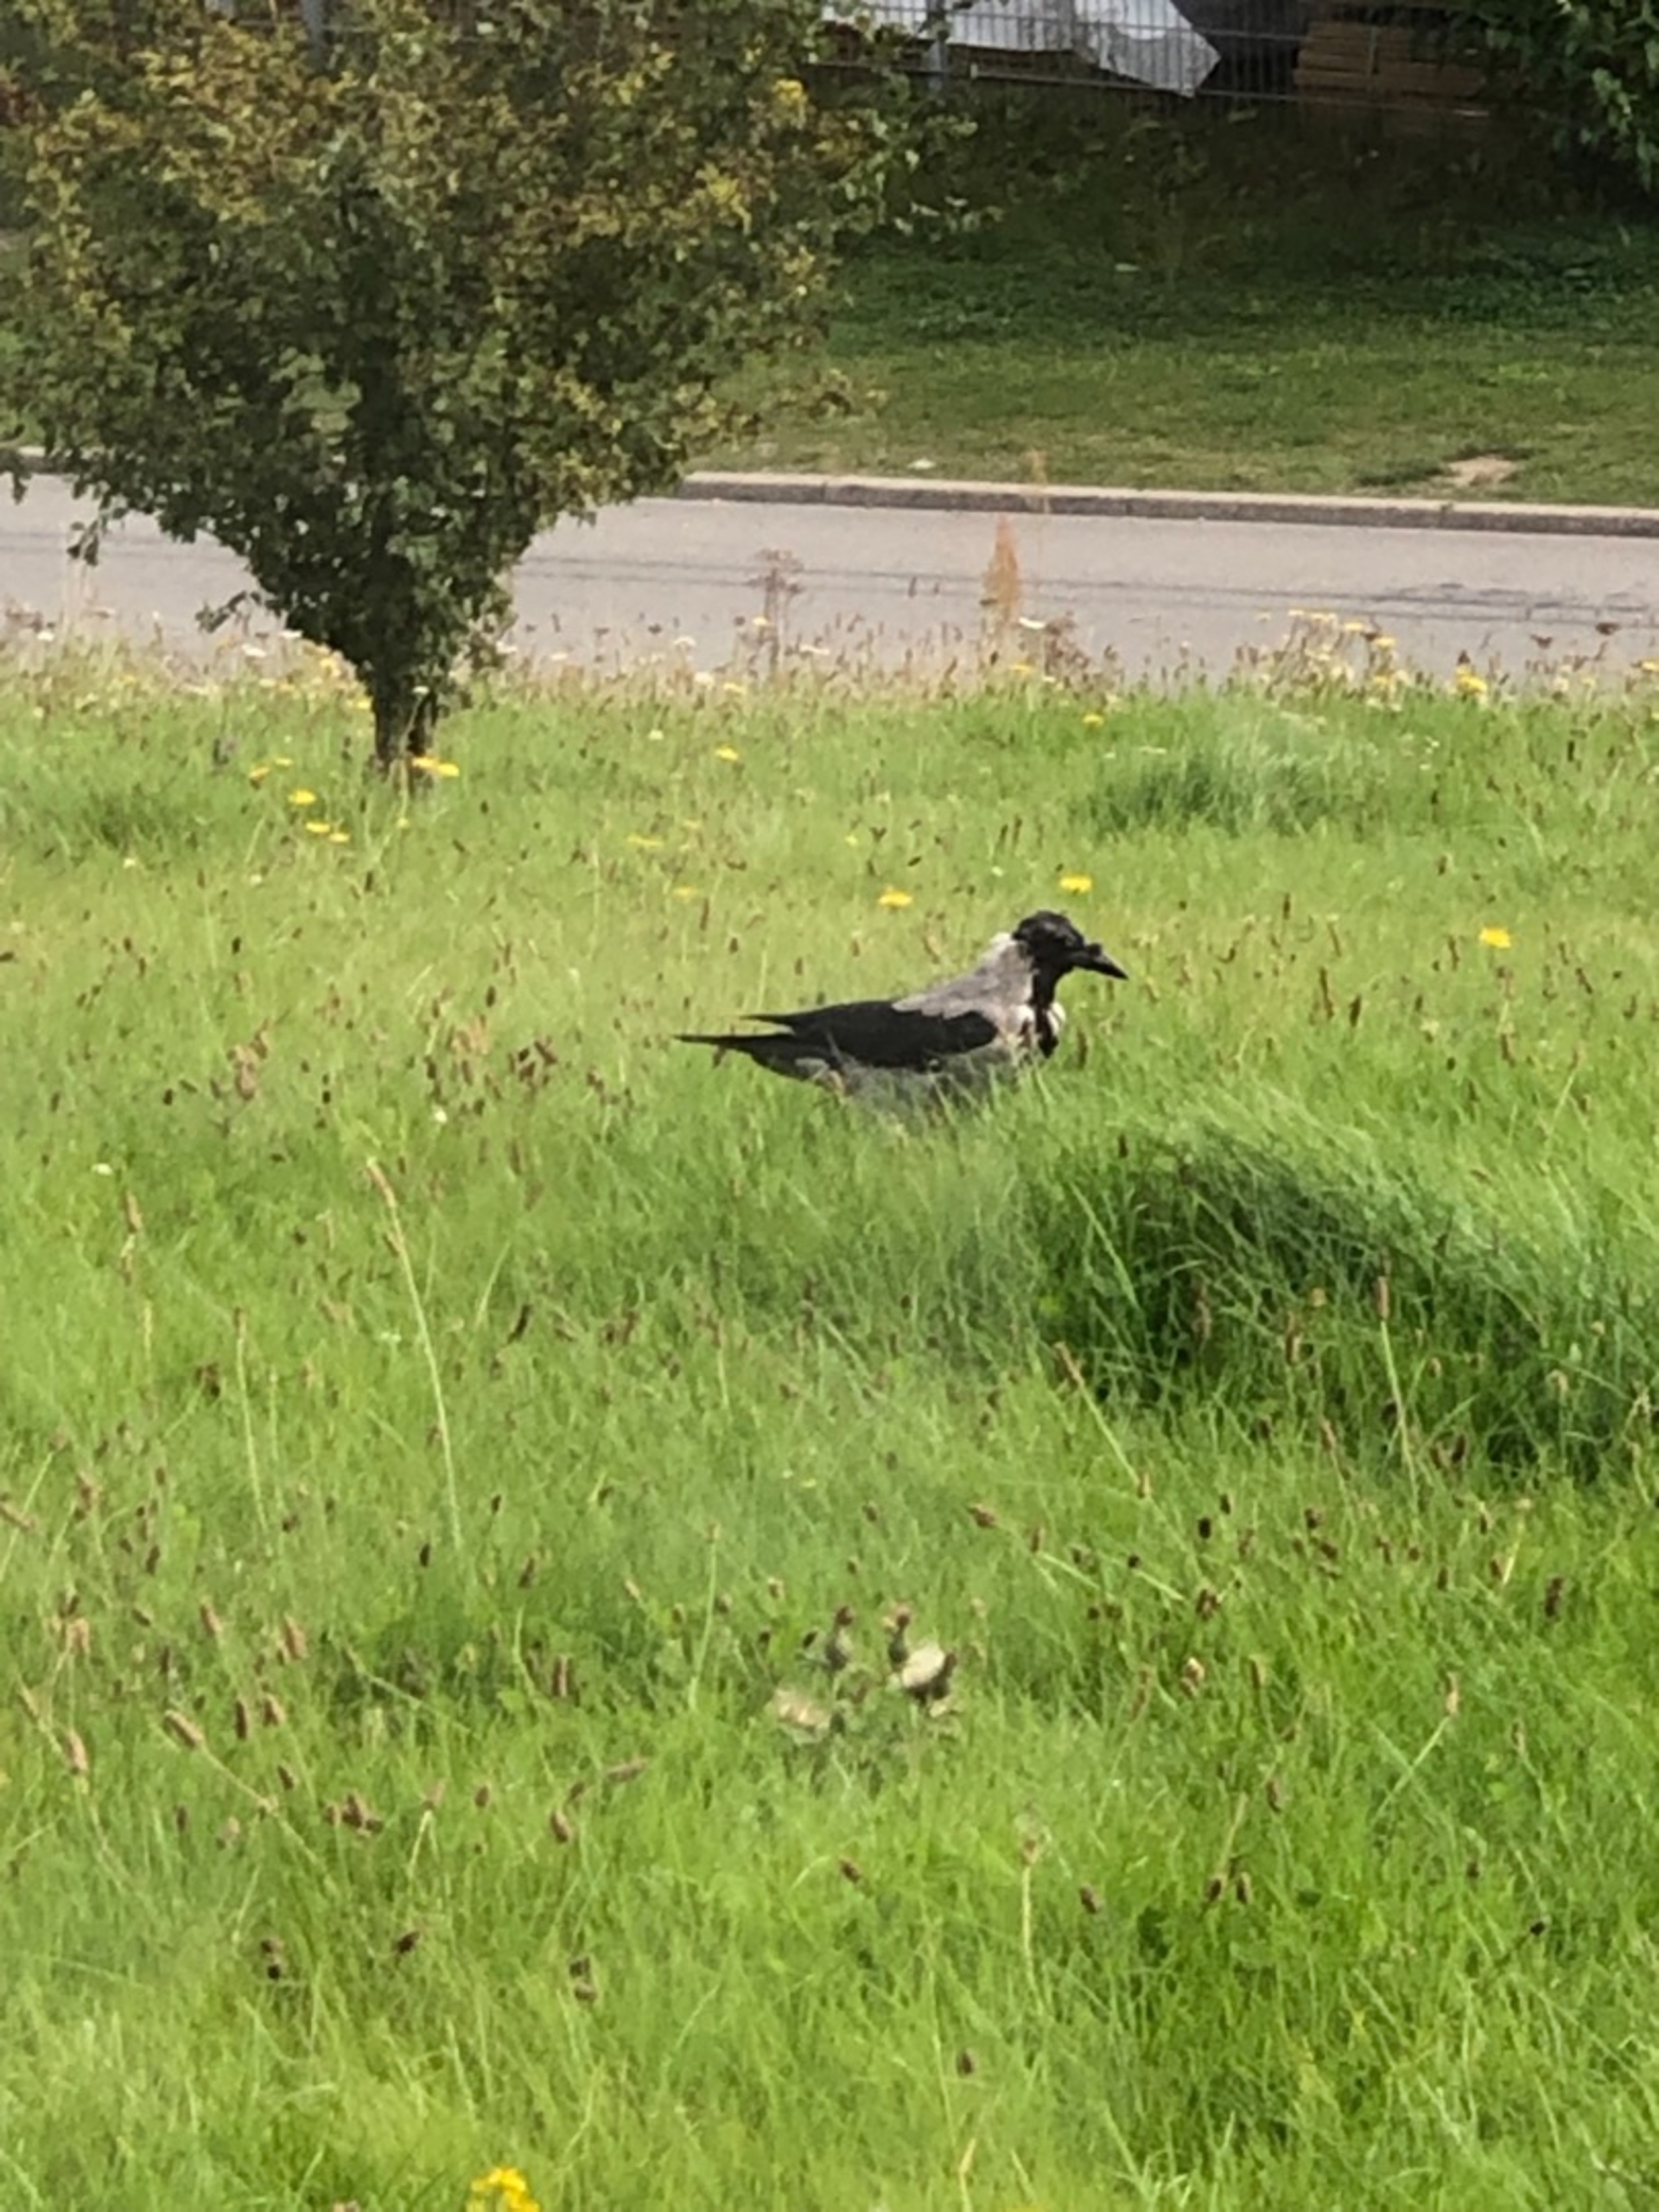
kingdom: Animalia
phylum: Chordata
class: Aves
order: Passeriformes
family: Corvidae
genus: Corvus
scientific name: Corvus cornix
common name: Gråkrage
